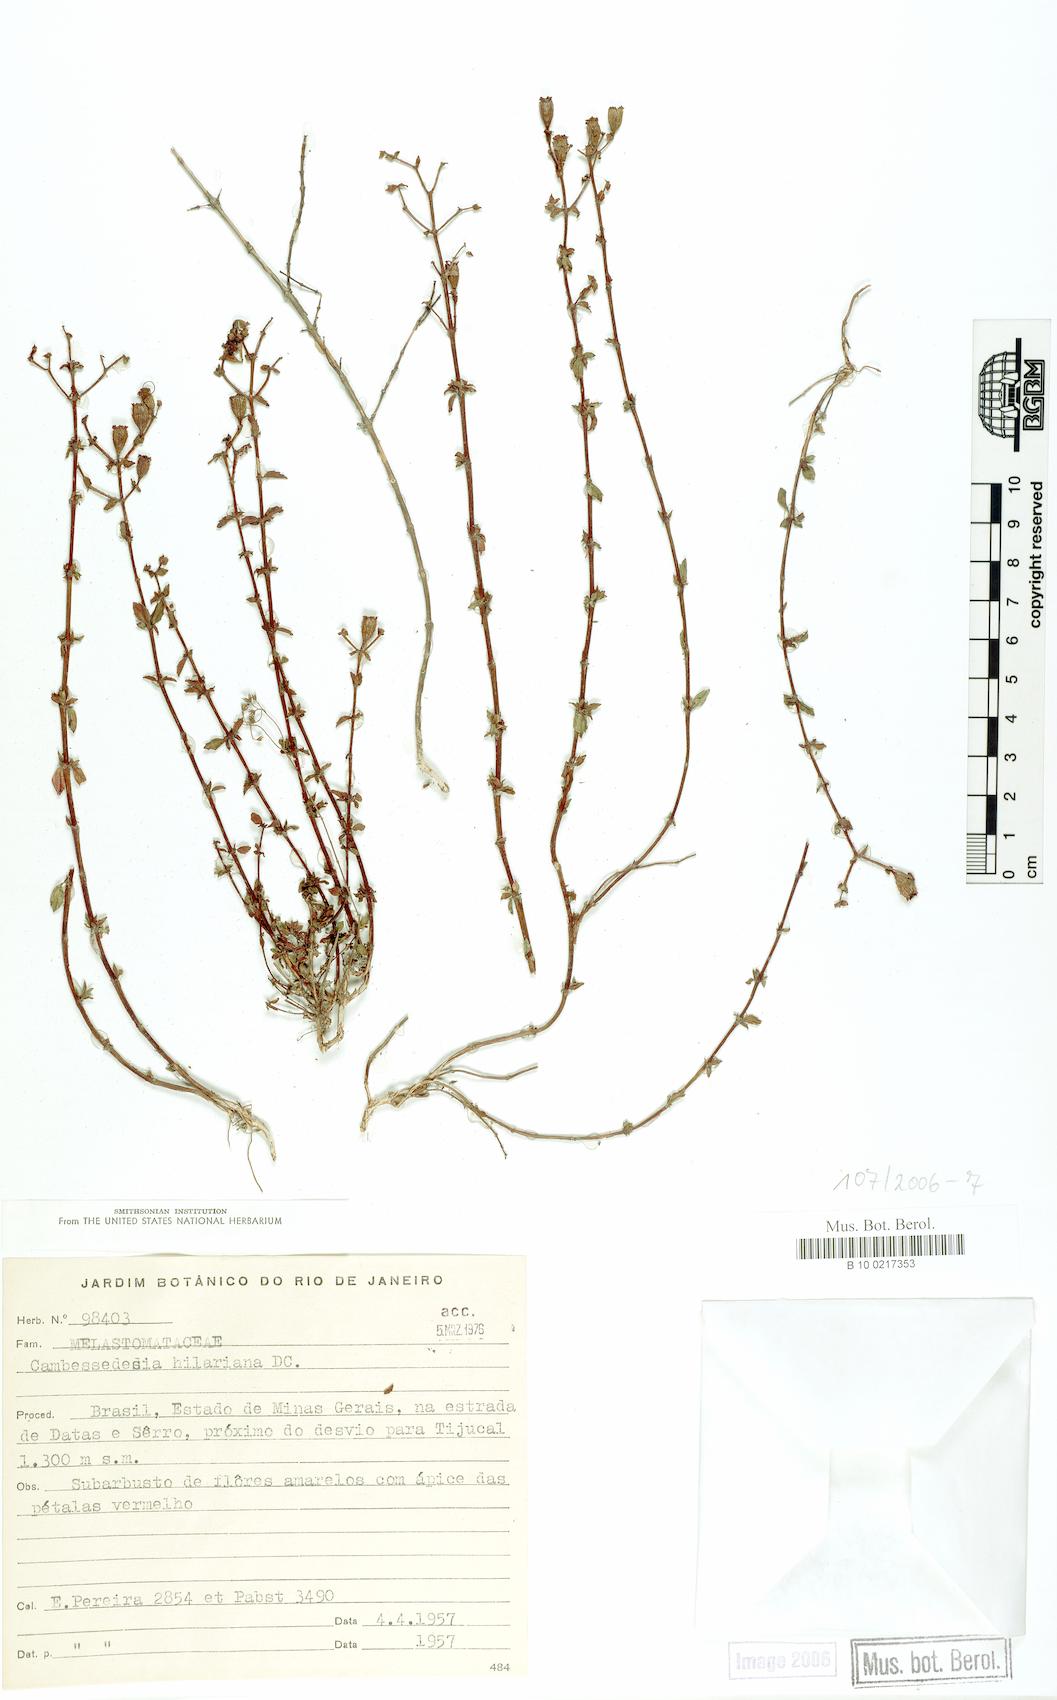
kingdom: Plantae
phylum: Tracheophyta
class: Magnoliopsida
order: Myrtales
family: Melastomataceae
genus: Cambessedesia
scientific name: Cambessedesia hilariana
